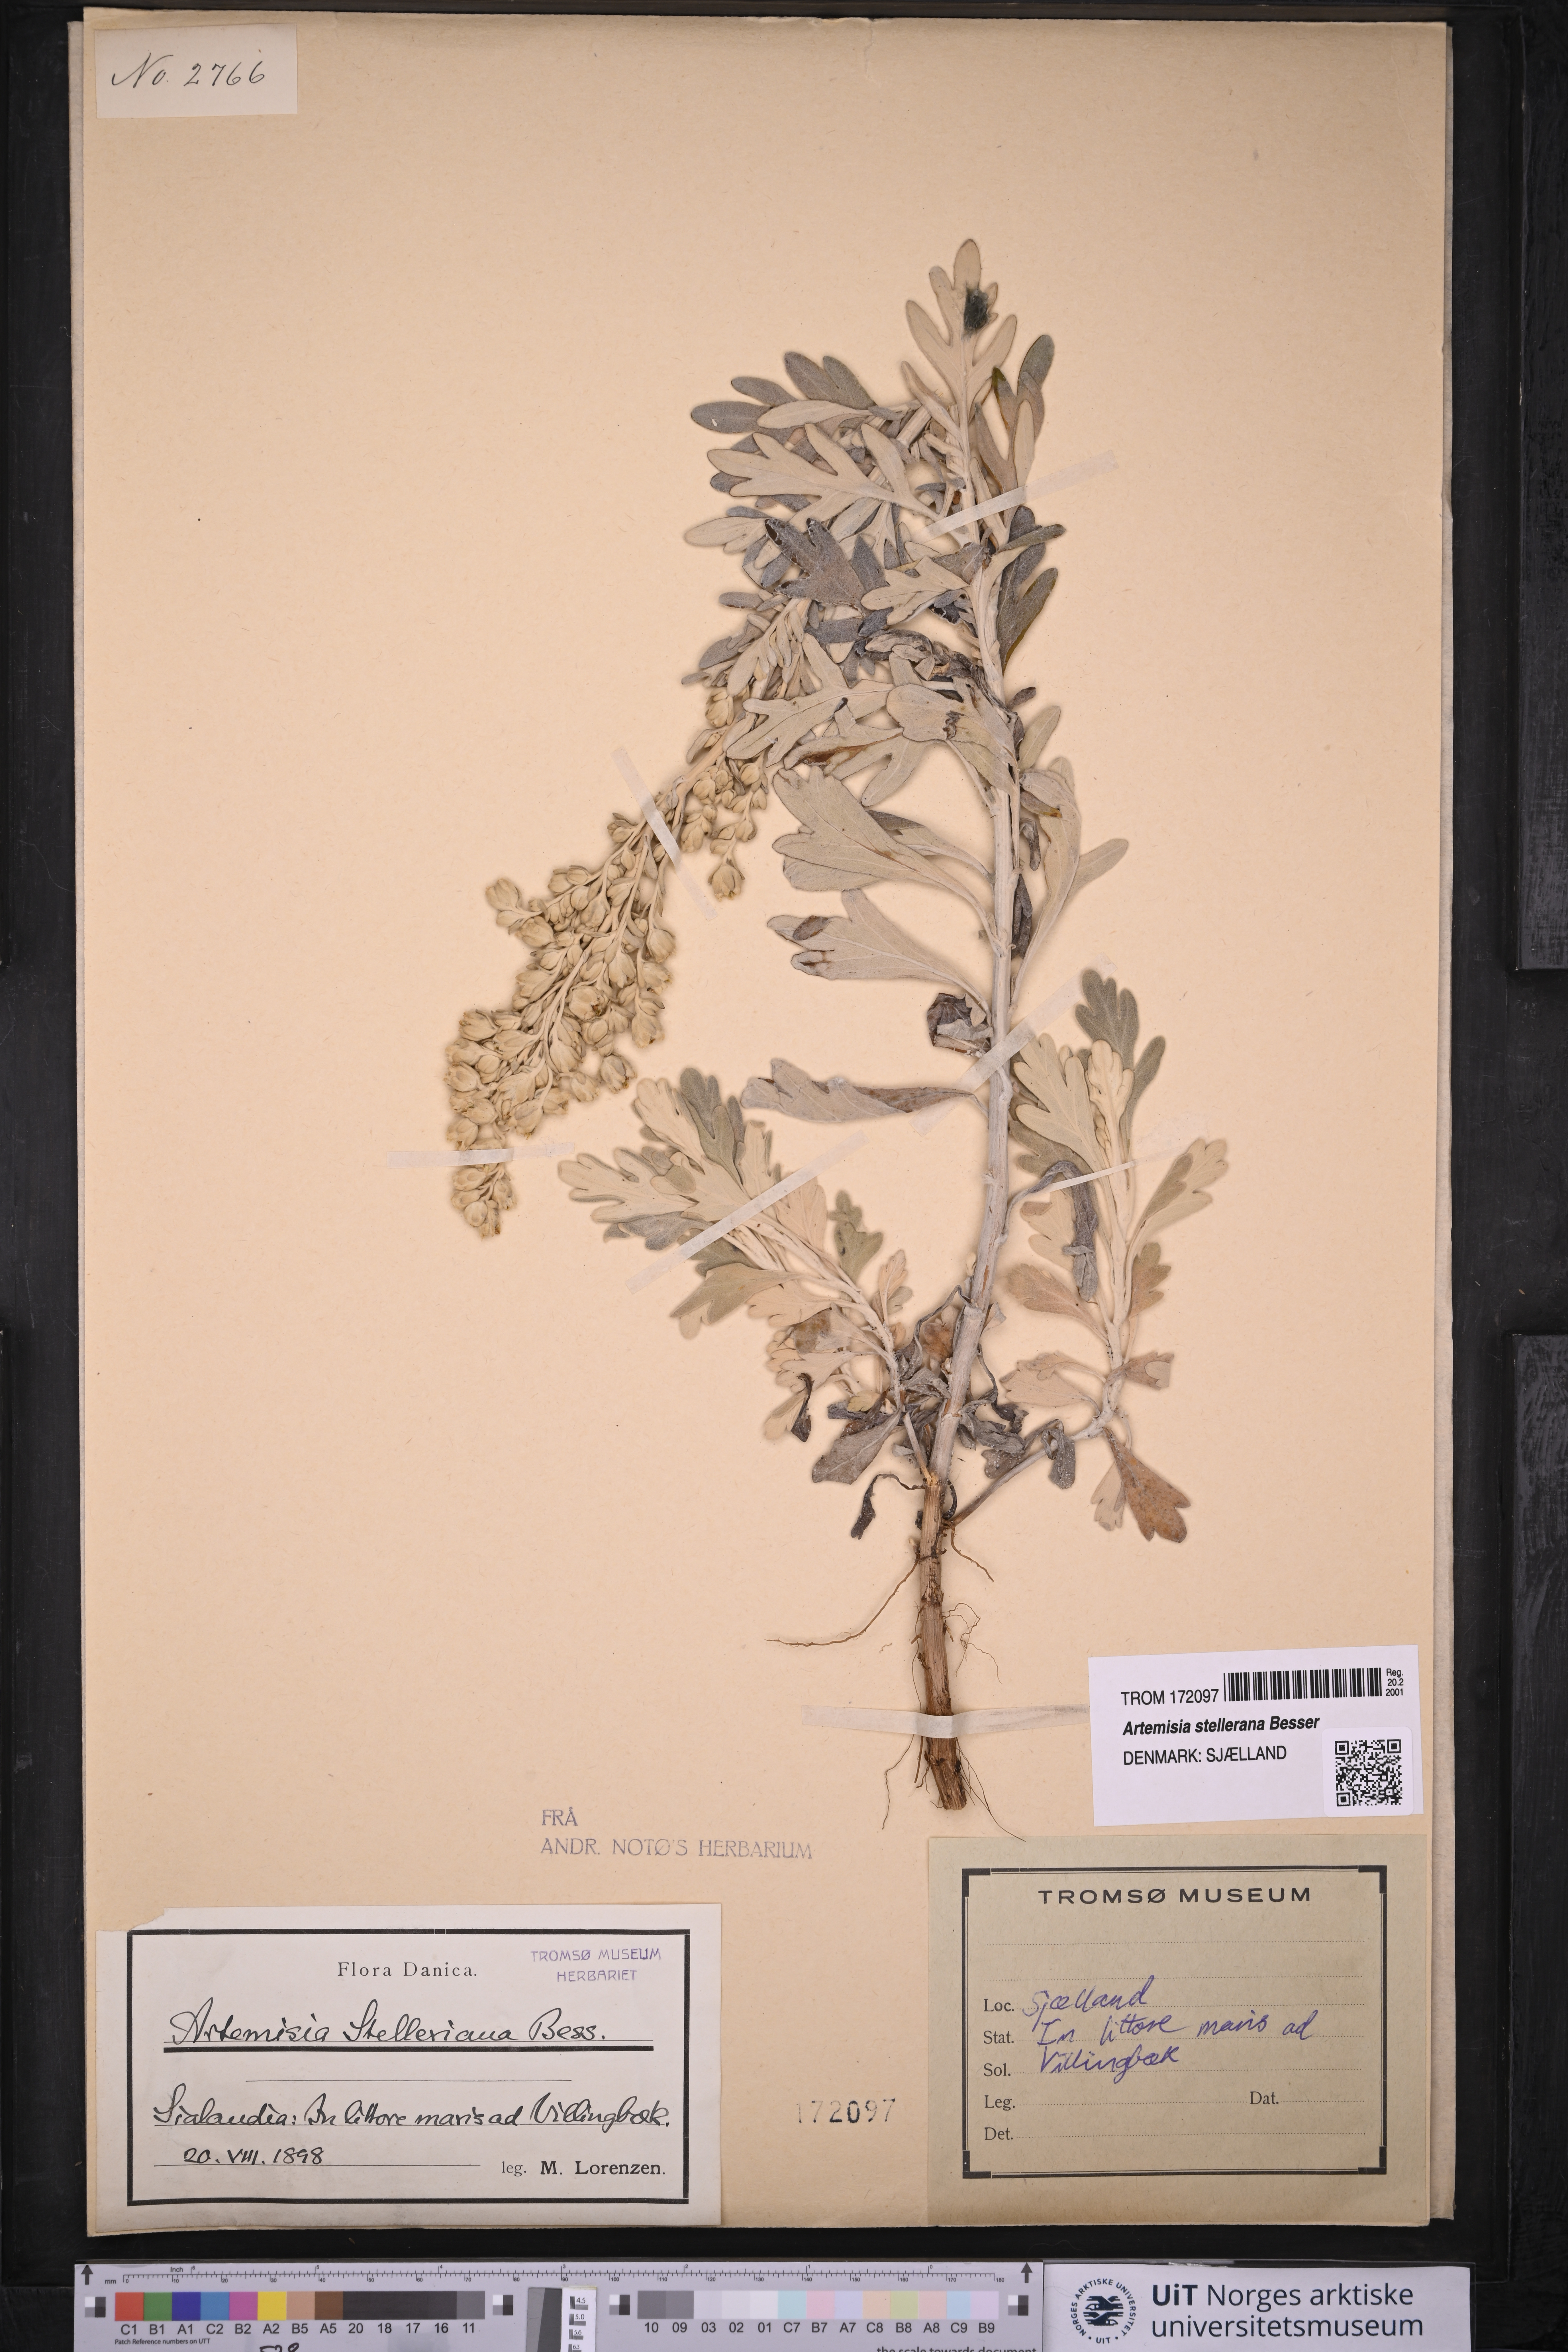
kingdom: Plantae
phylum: Tracheophyta
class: Magnoliopsida
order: Asterales
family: Asteraceae
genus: Artemisia
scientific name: Artemisia stelleriana
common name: Beach wormwood
